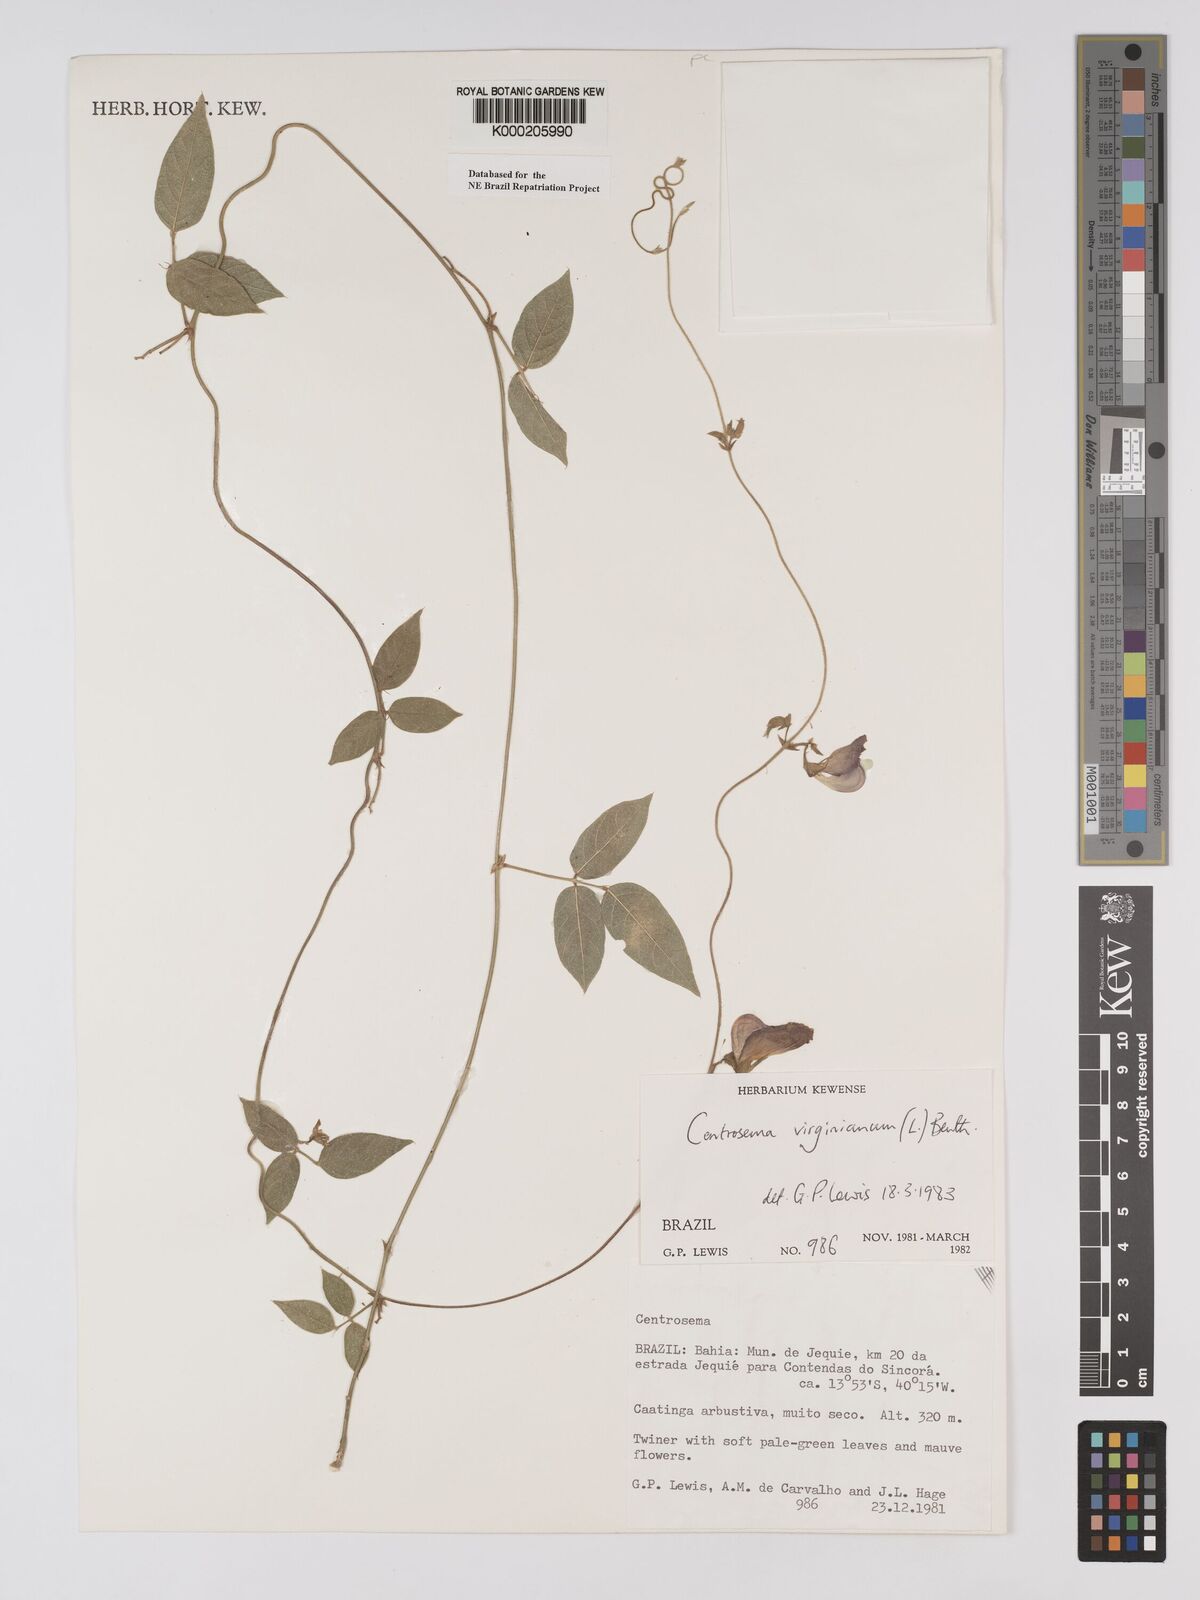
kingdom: Plantae
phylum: Tracheophyta
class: Magnoliopsida
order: Fabales
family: Fabaceae
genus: Centrosema
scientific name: Centrosema virginianum
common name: Butterfly-pea
